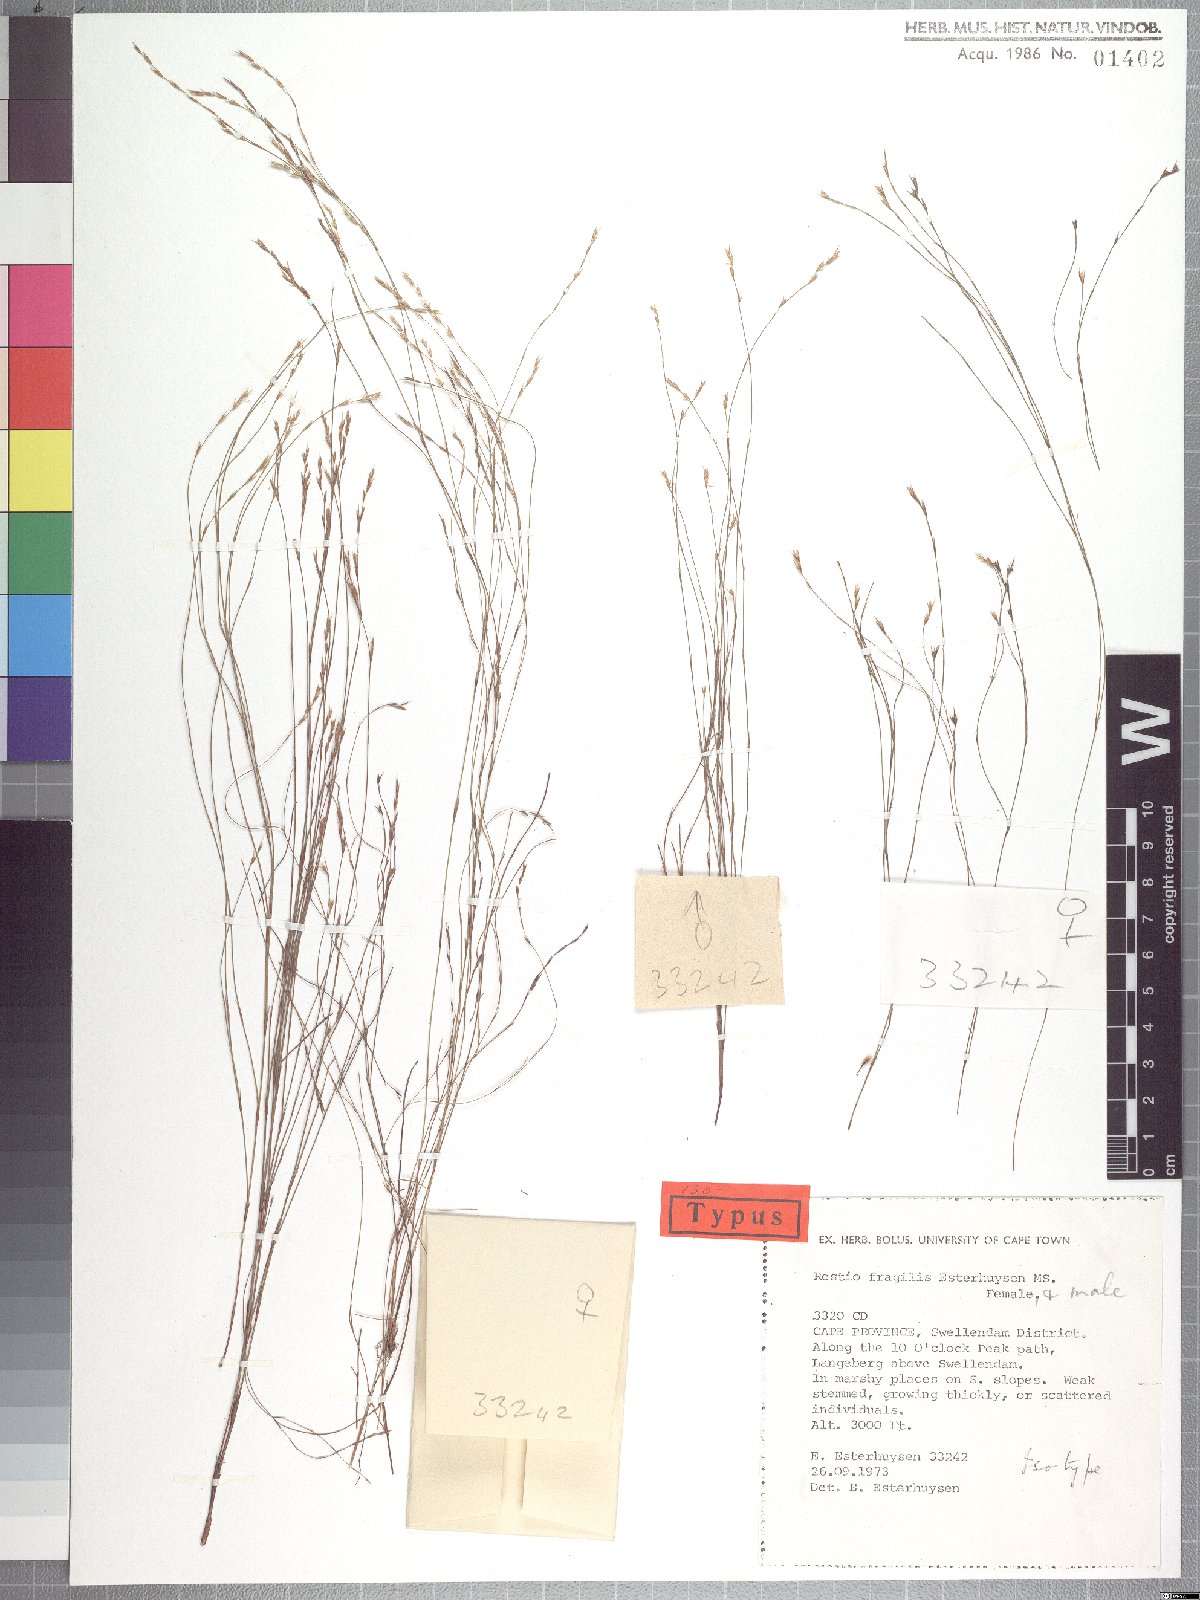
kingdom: Plantae
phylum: Tracheophyta
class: Liliopsida
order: Poales
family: Restionaceae
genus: Restio
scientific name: Restio fragilis
